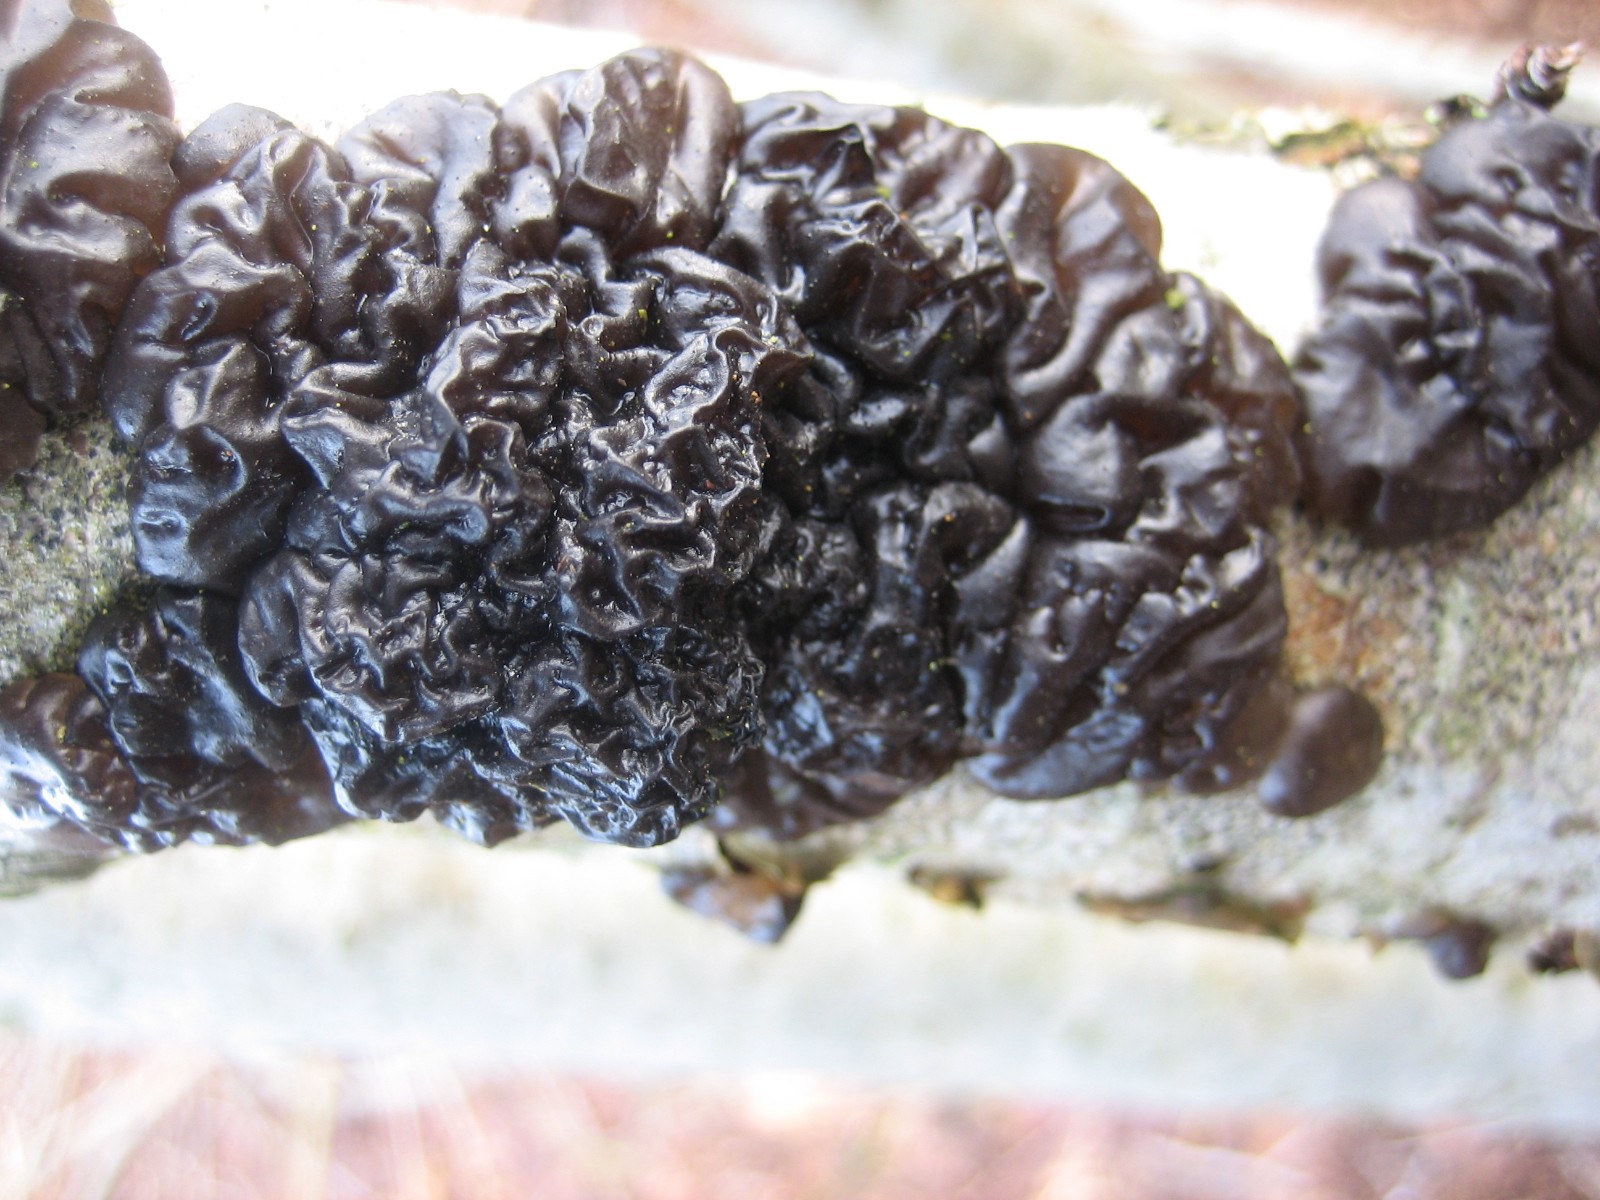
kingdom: Fungi
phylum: Basidiomycota
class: Agaricomycetes
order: Auriculariales
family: Auriculariaceae
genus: Exidia
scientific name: Exidia nigricans
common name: almindelig bævretop
